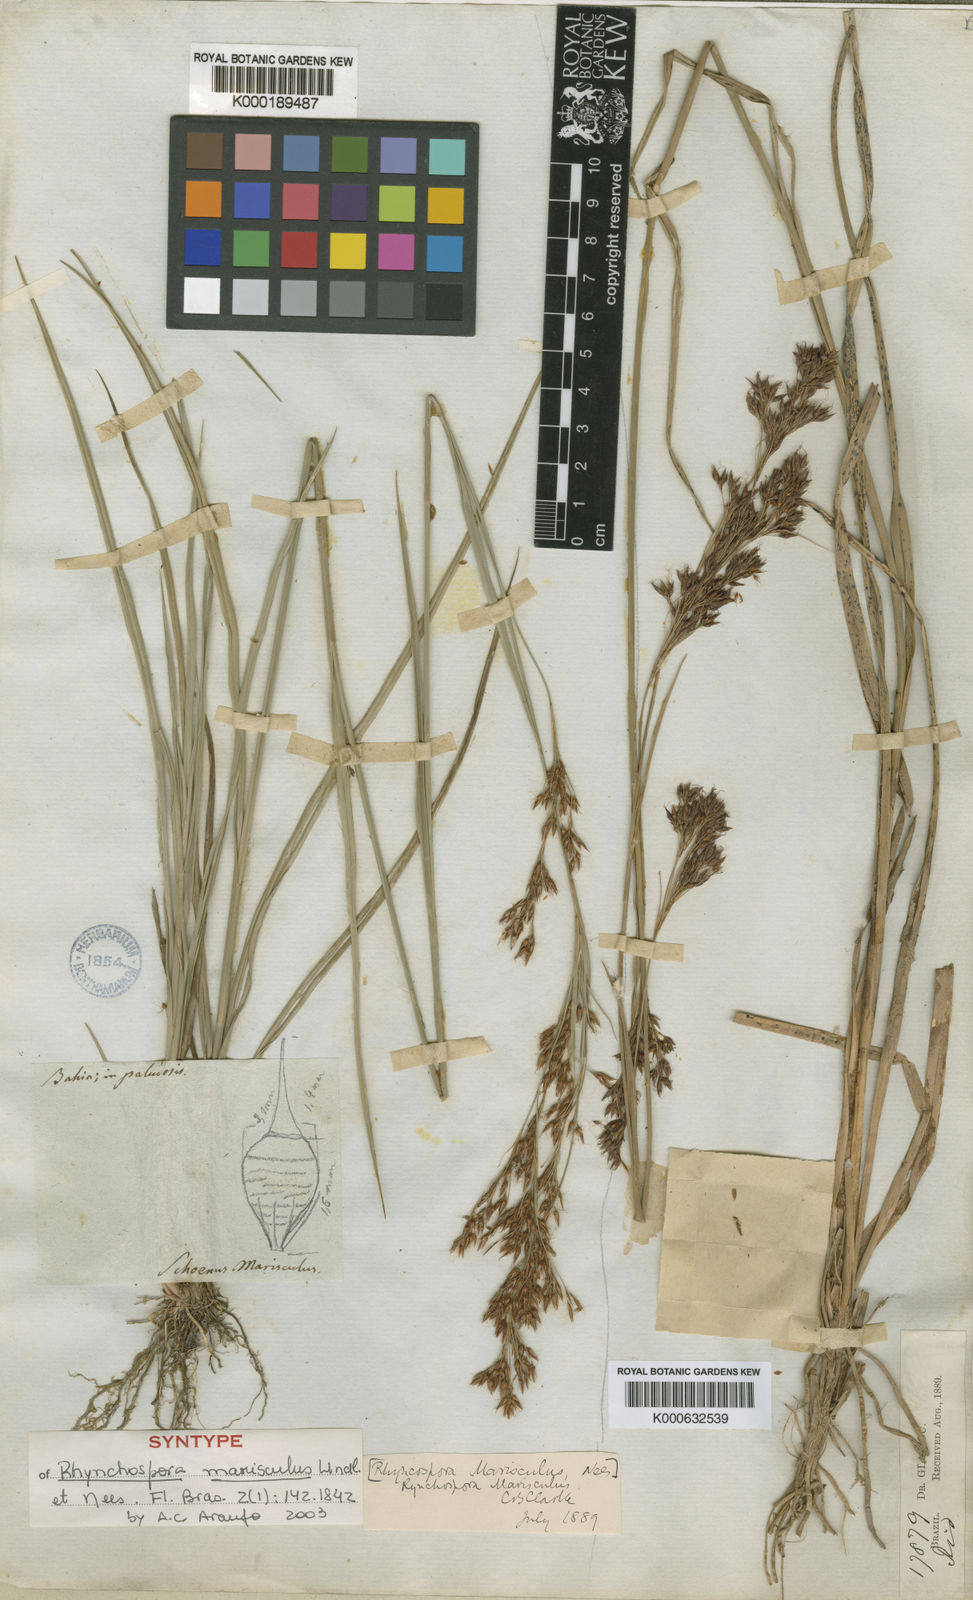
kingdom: Plantae
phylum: Tracheophyta
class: Liliopsida
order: Poales
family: Cyperaceae
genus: Rhynchospora
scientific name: Rhynchospora marisculus
